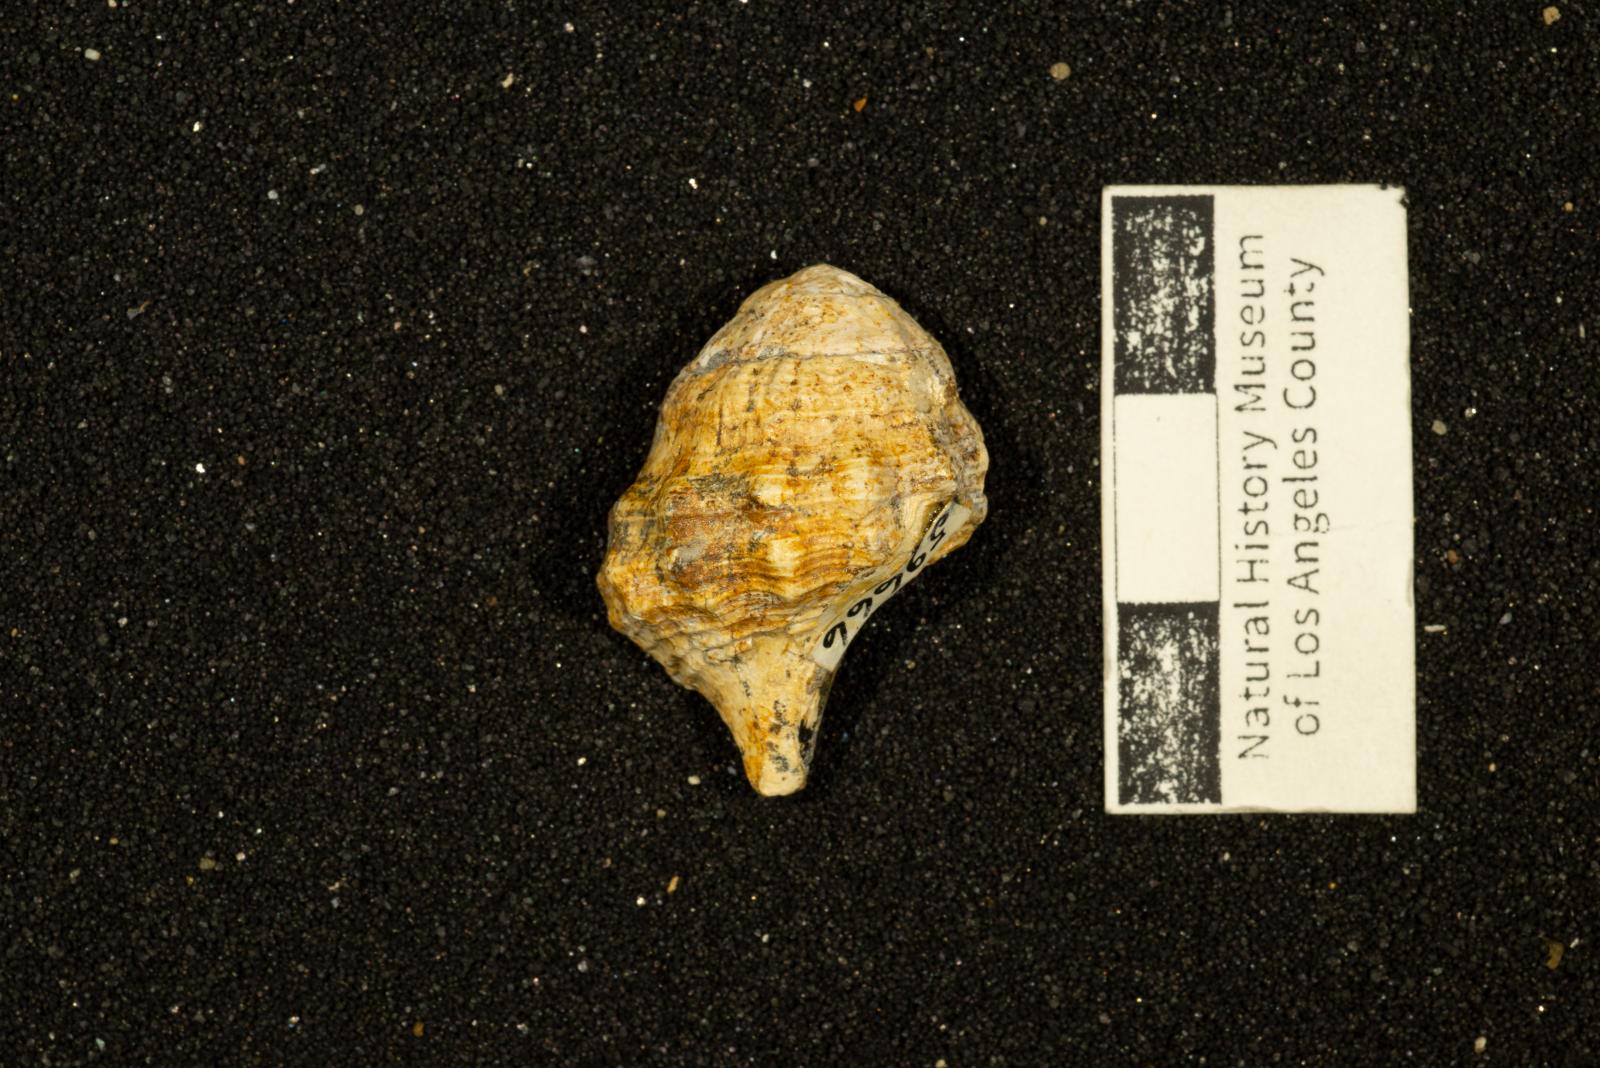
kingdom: Animalia
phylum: Mollusca
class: Gastropoda
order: Neogastropoda
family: Perissityidae
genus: Perissitys
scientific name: Perissitys Perissolax brevirostris
